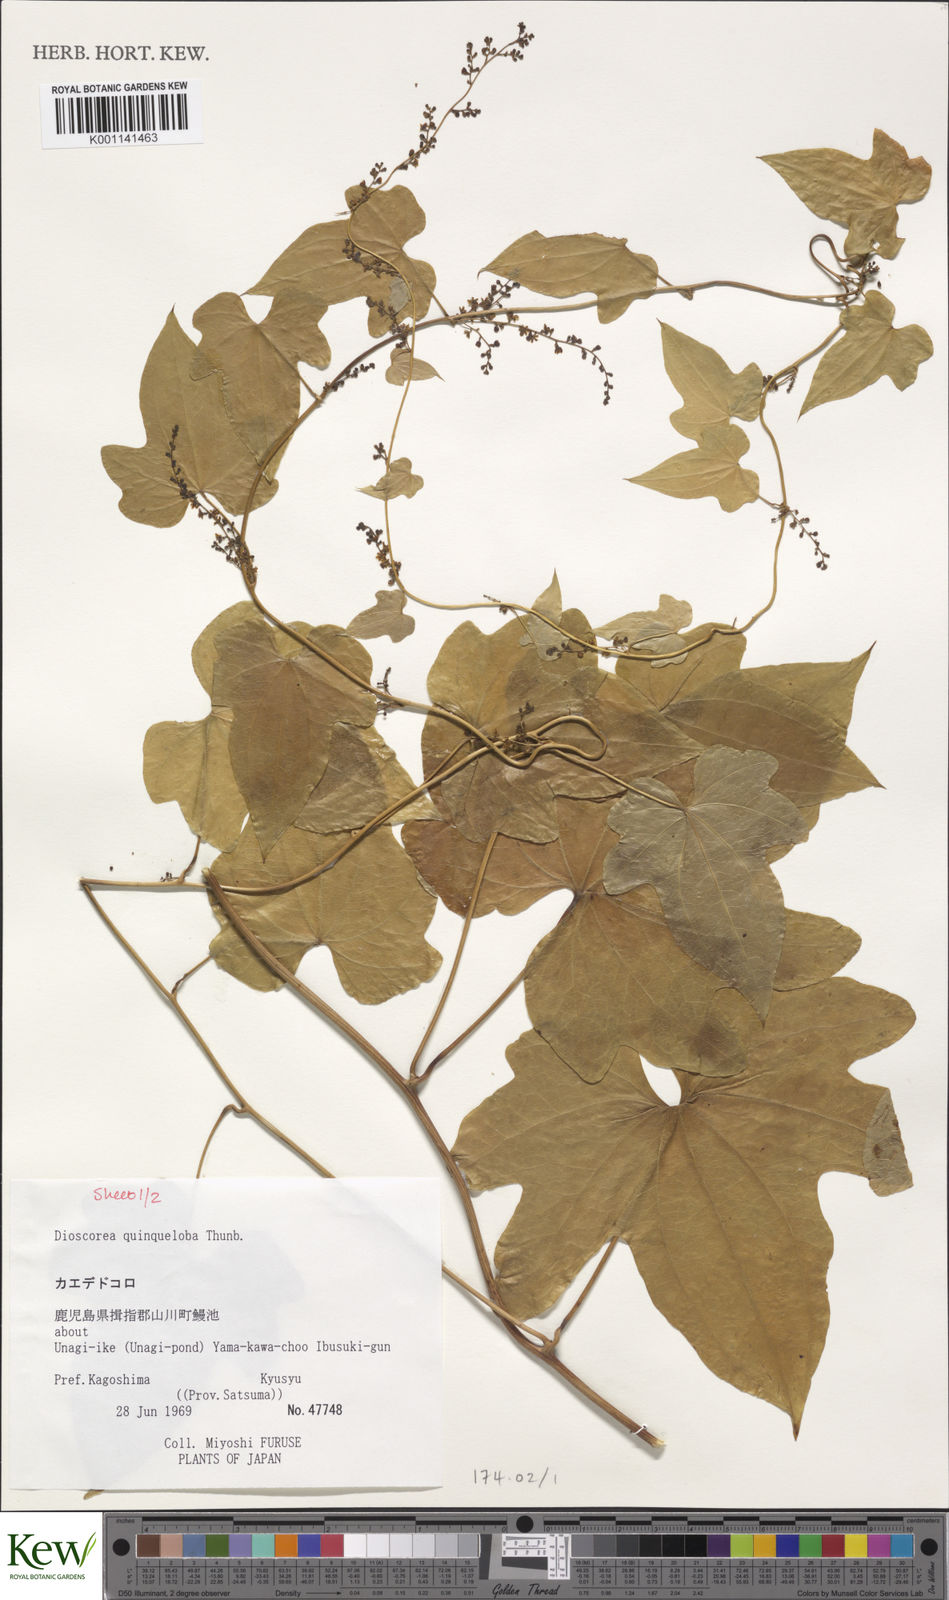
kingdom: Plantae
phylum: Tracheophyta
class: Liliopsida
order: Dioscoreales
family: Dioscoreaceae
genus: Dioscorea
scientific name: Dioscorea quinquelobata
